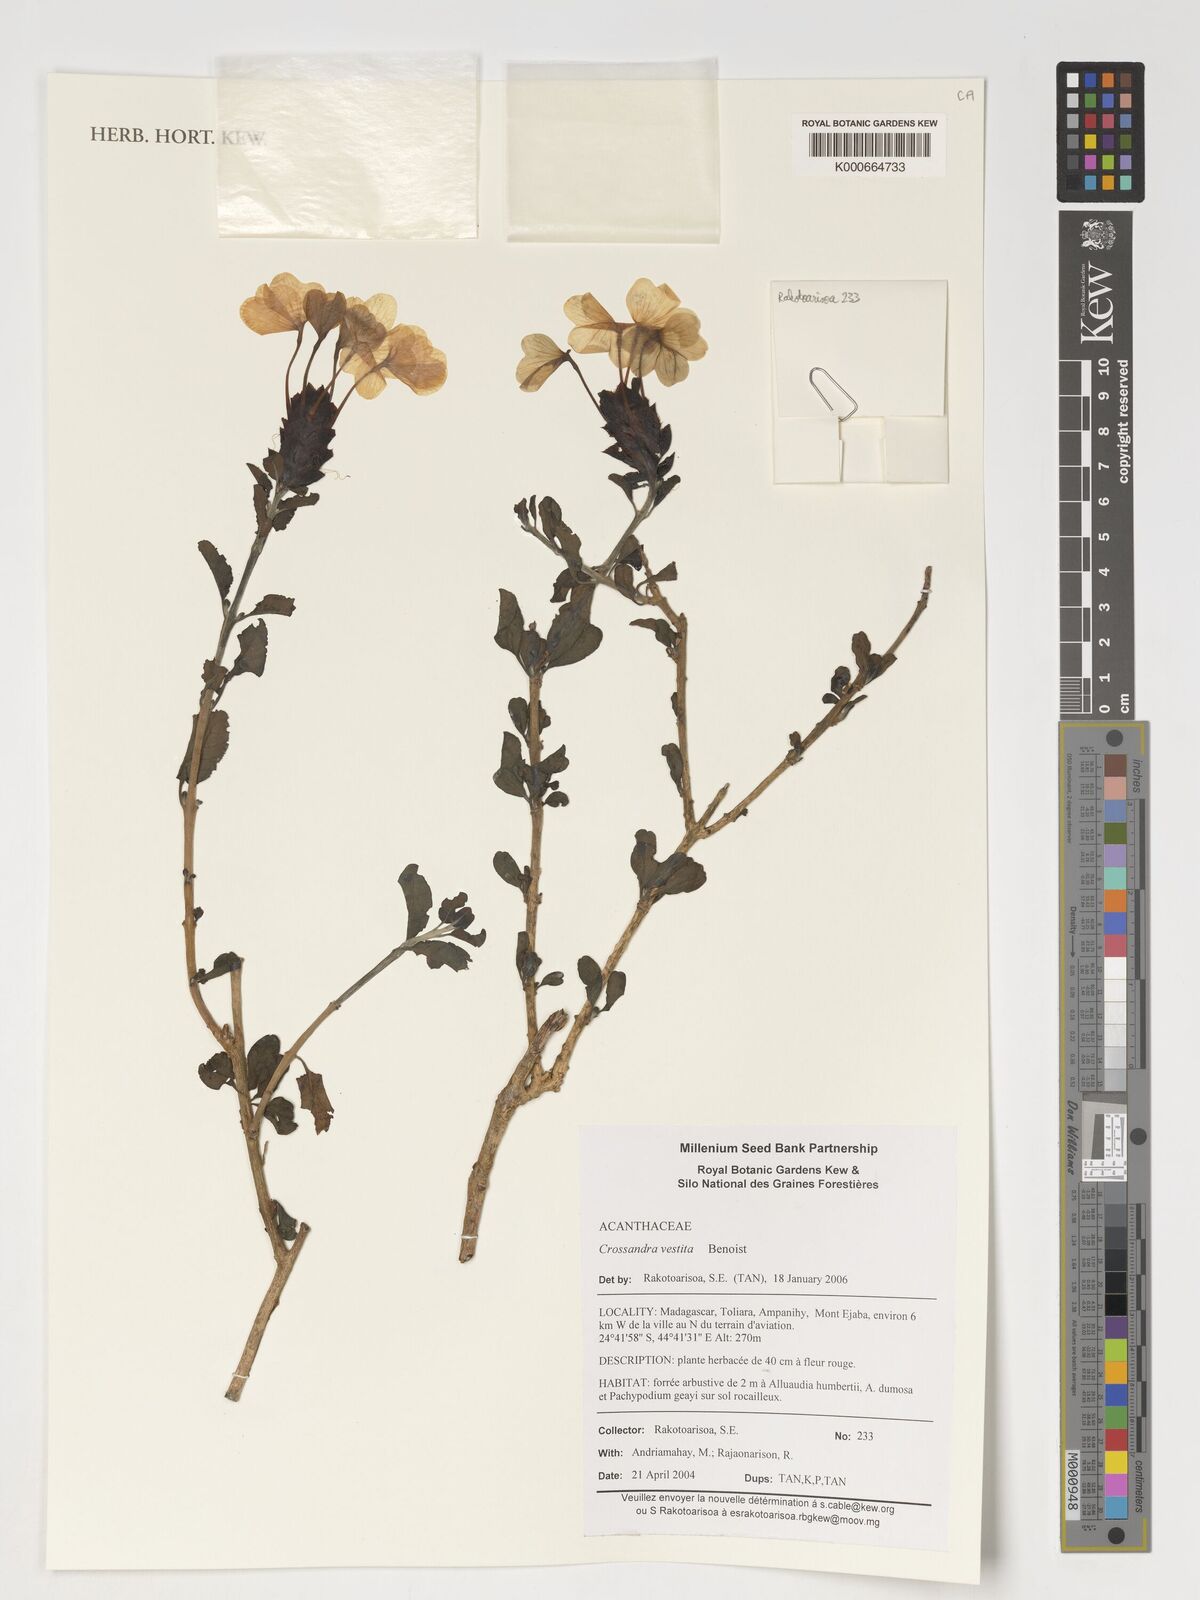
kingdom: Plantae
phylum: Tracheophyta
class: Magnoliopsida
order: Lamiales
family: Acanthaceae
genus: Crossandra
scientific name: Crossandra vestita
